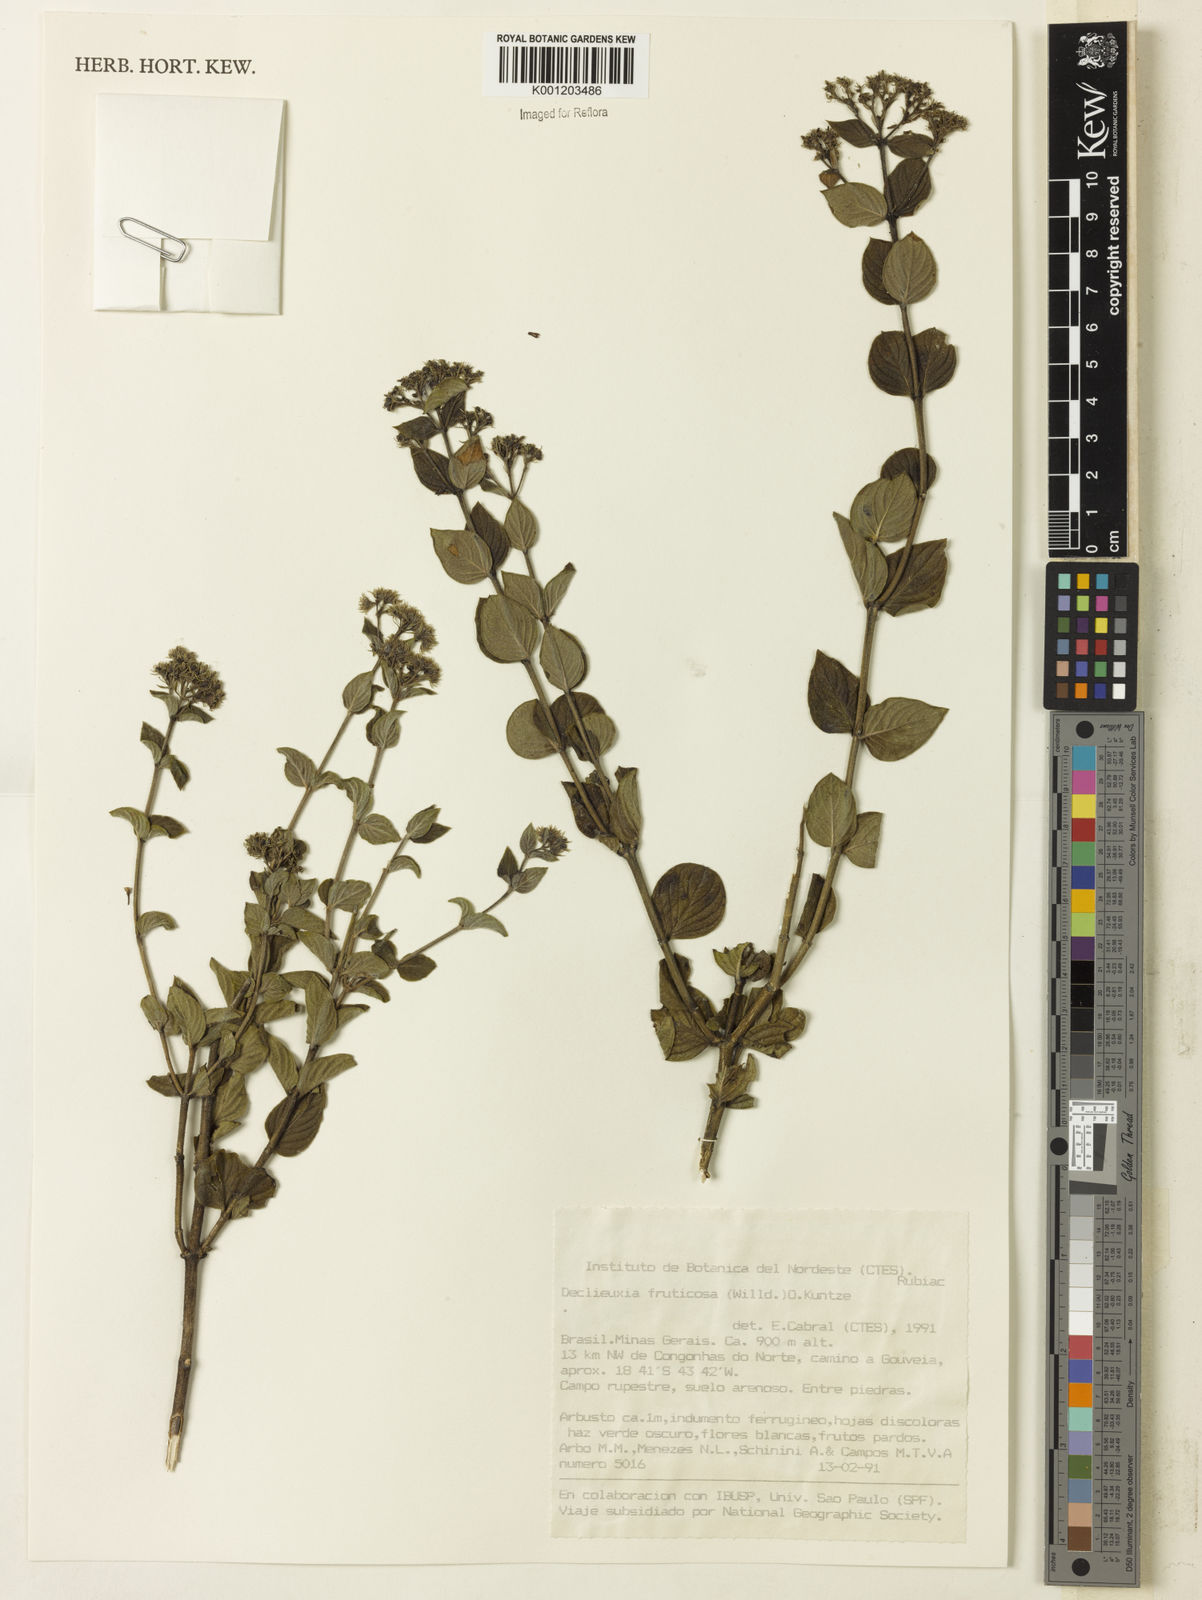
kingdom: Plantae
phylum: Tracheophyta
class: Magnoliopsida
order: Gentianales
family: Rubiaceae
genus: Declieuxia
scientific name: Declieuxia fruticosa
